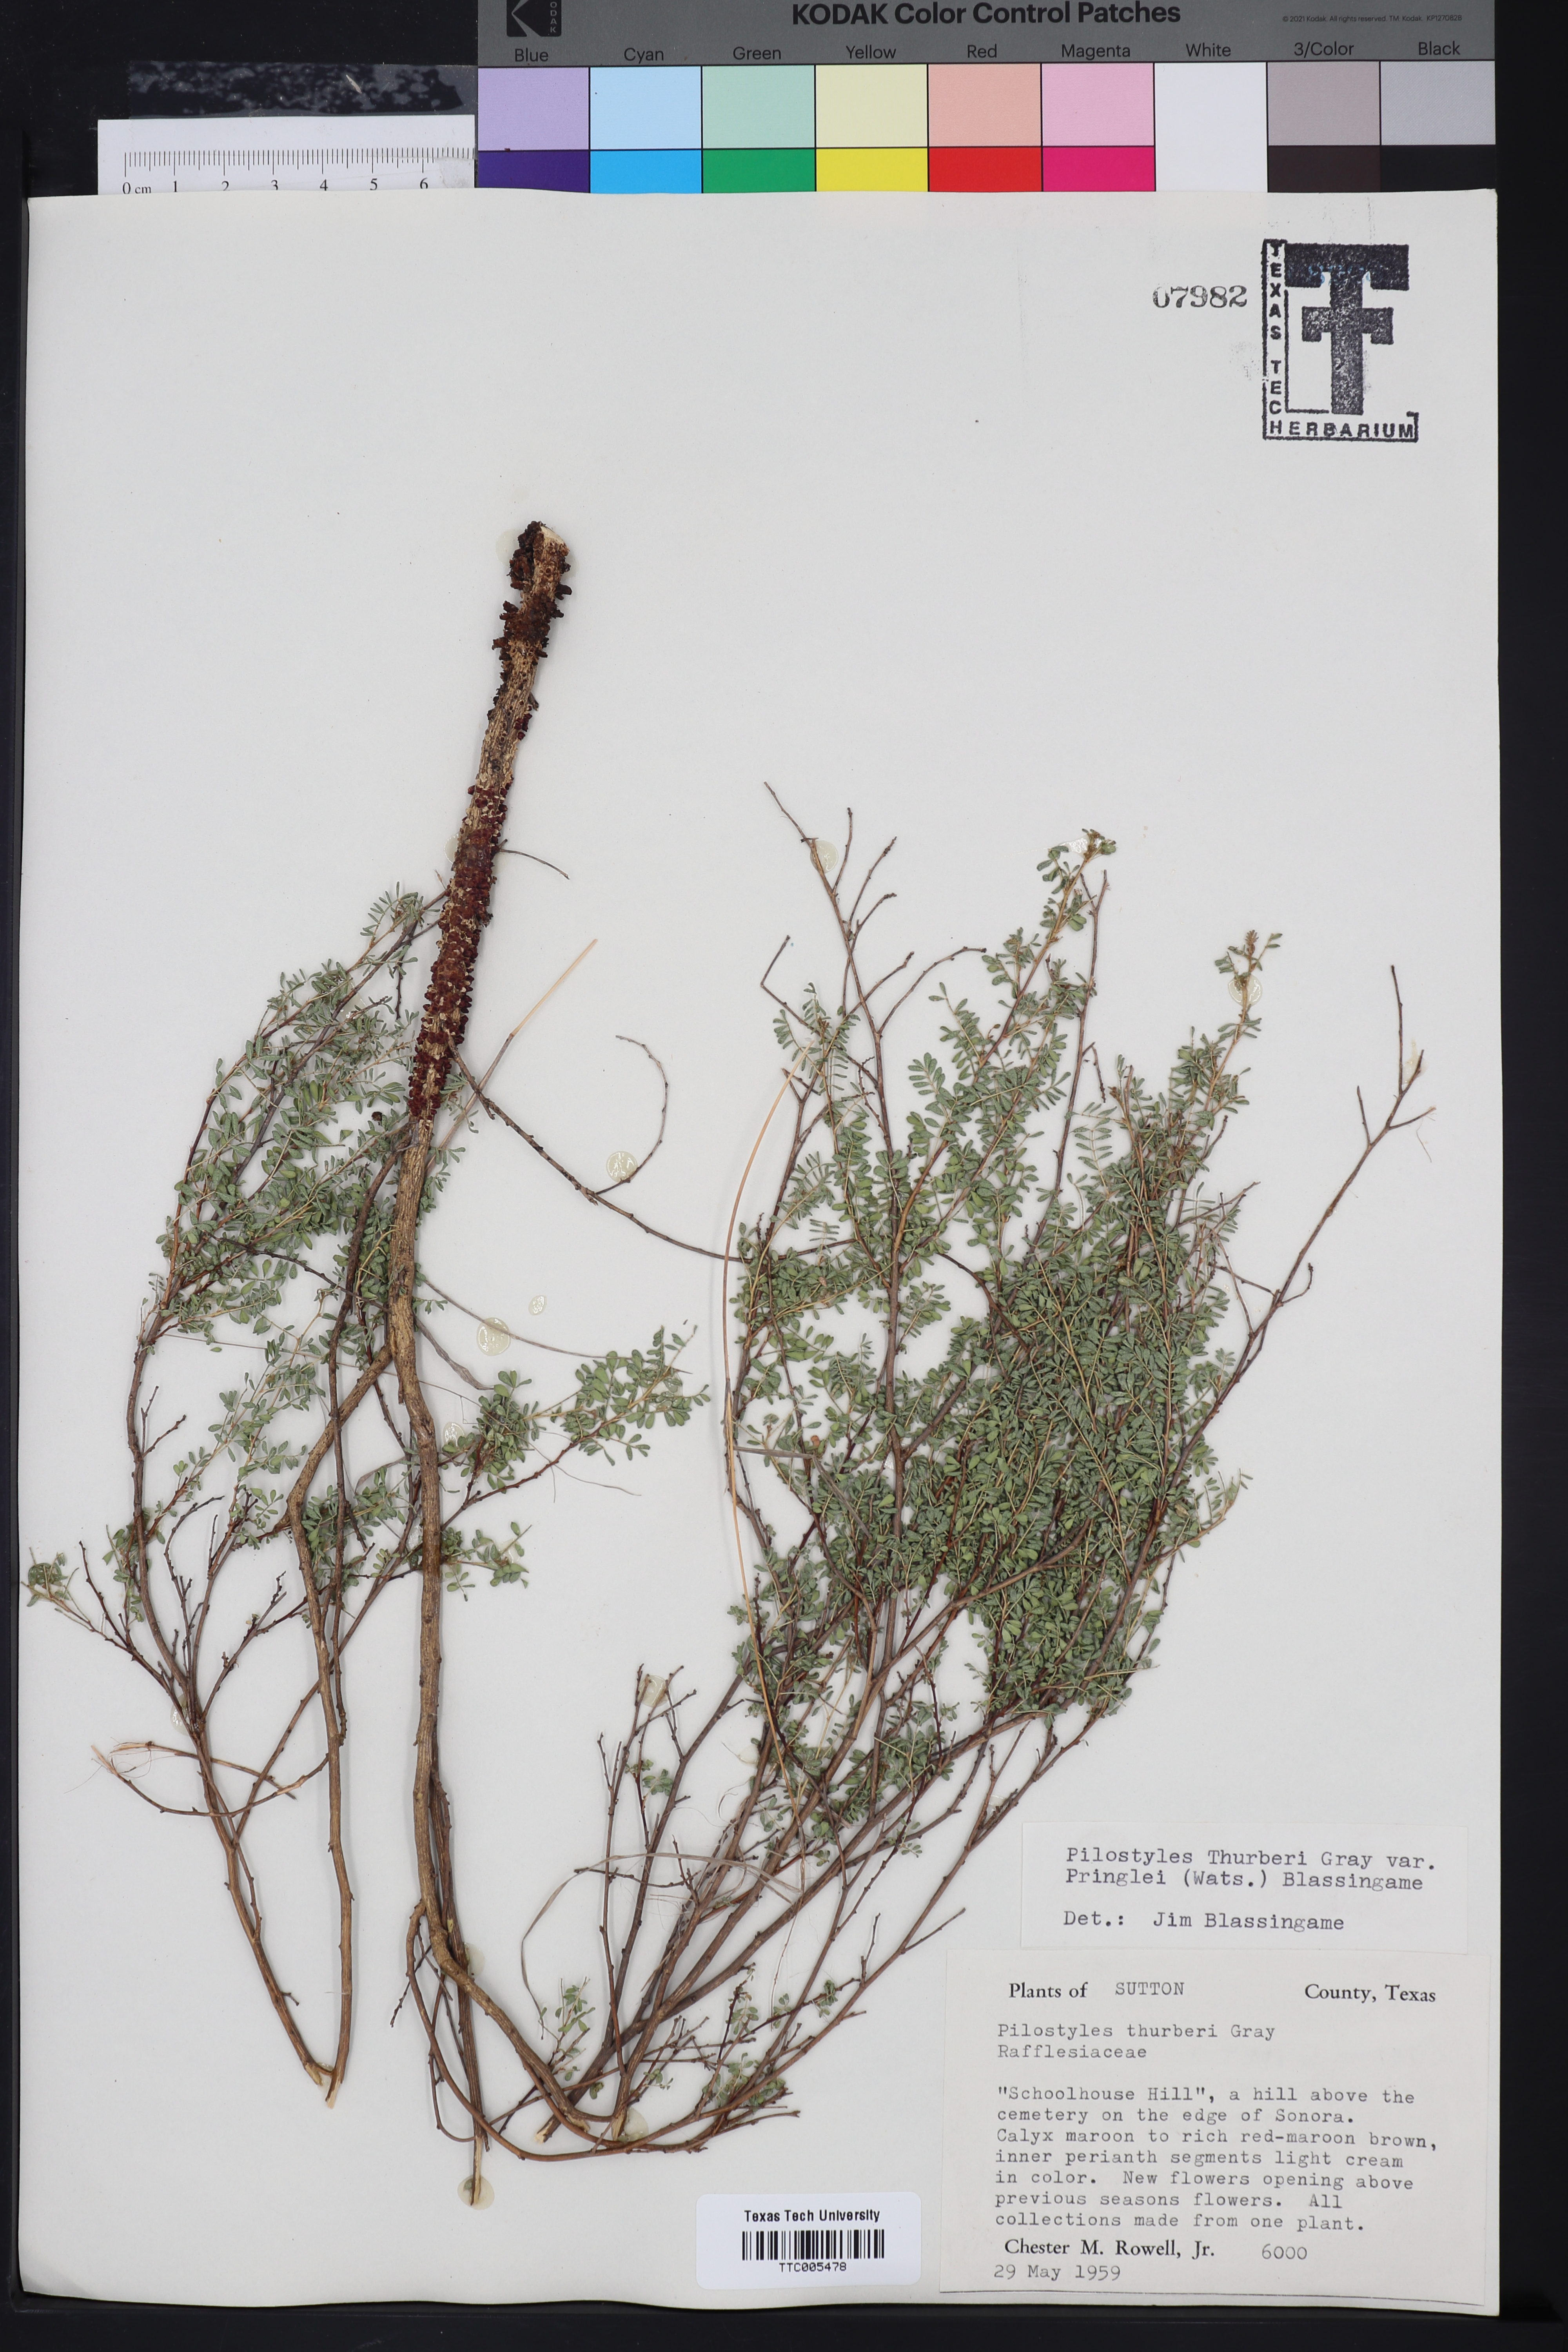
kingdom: Plantae
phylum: Tracheophyta
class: Magnoliopsida
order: Cucurbitales
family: Apodanthaceae
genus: Pilostyles
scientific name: Pilostyles thurberi
